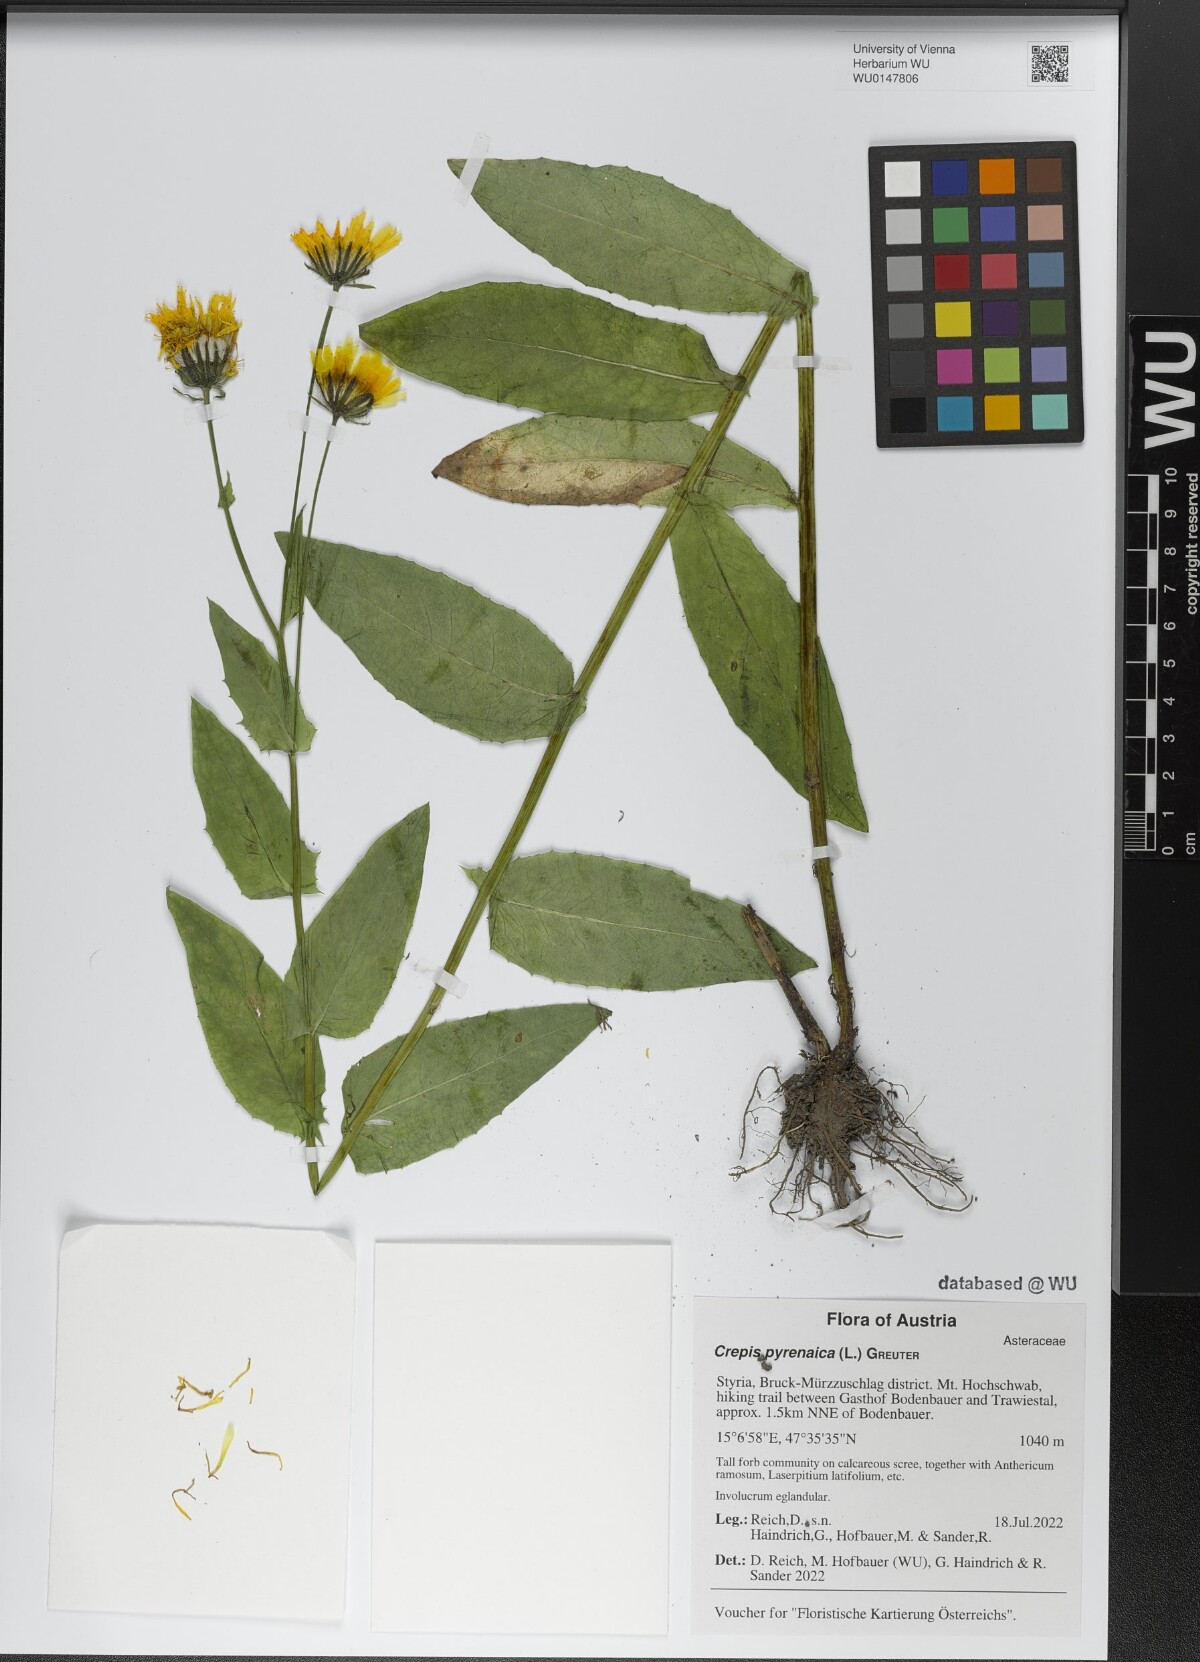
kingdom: Plantae
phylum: Tracheophyta
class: Magnoliopsida
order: Asterales
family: Asteraceae
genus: Crepis
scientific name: Crepis pyrenaica
